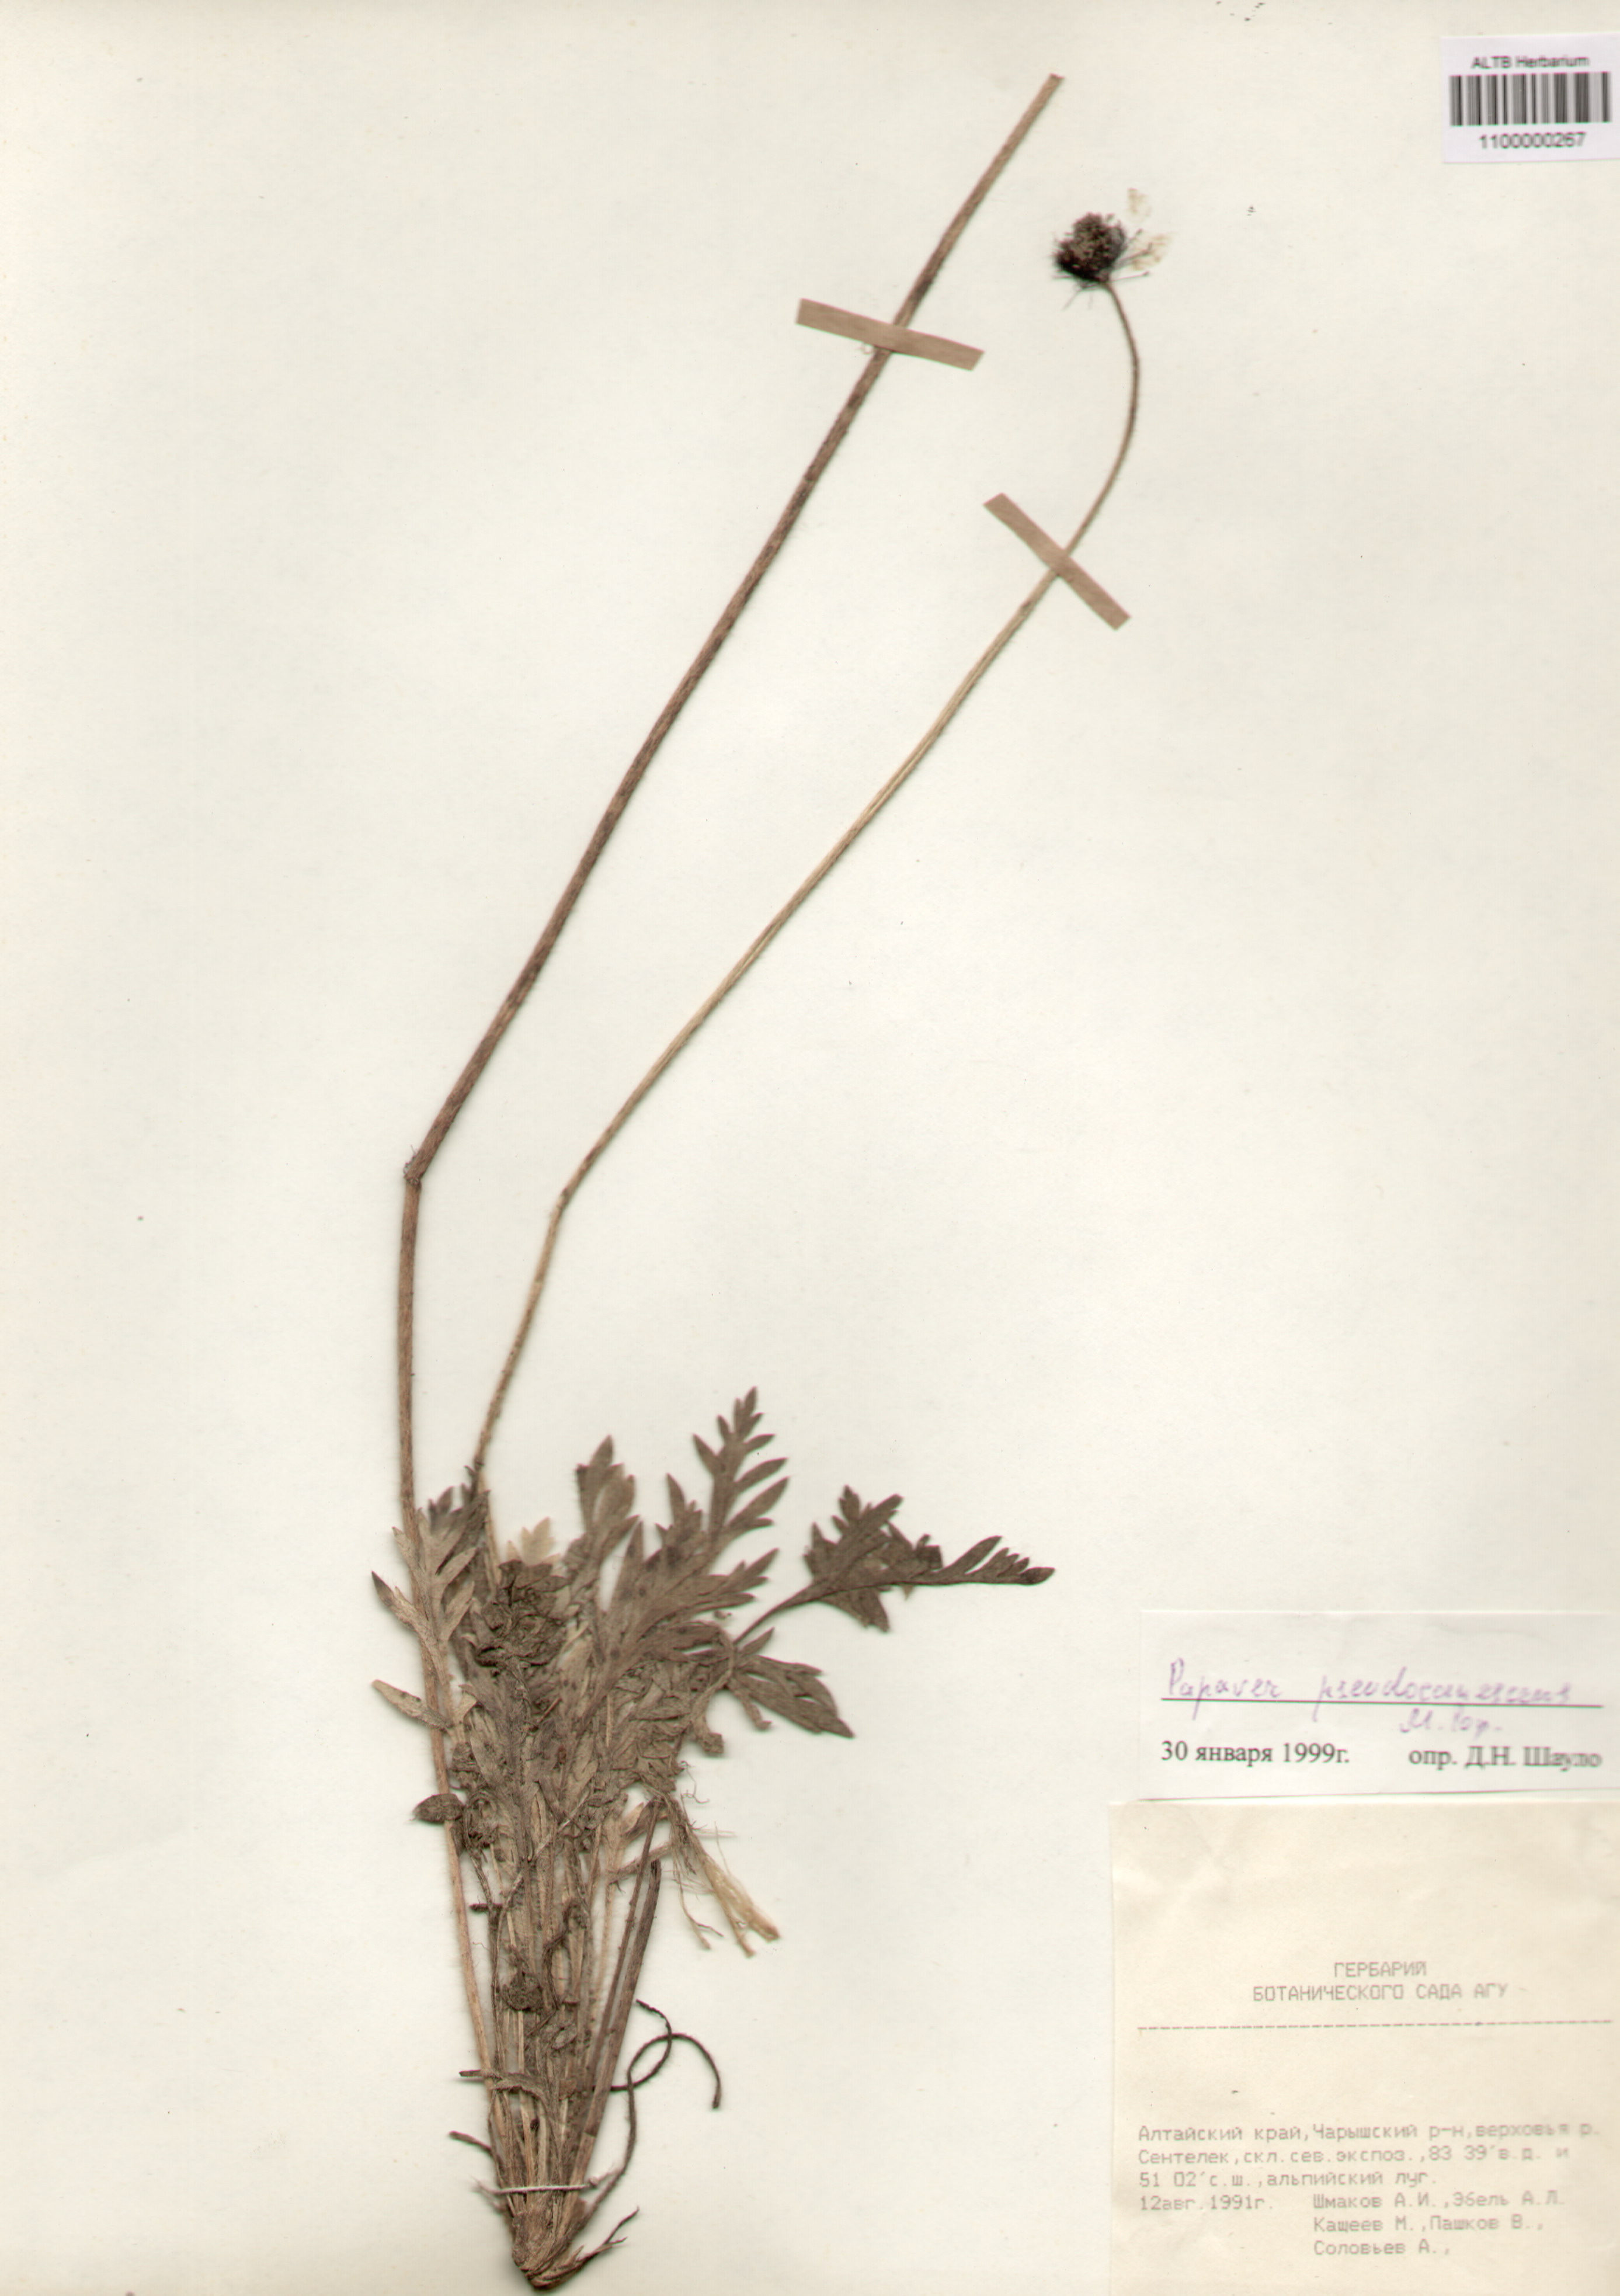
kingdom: Plantae
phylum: Tracheophyta
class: Magnoliopsida
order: Ranunculales
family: Papaveraceae
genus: Papaver
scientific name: Papaver canescens
